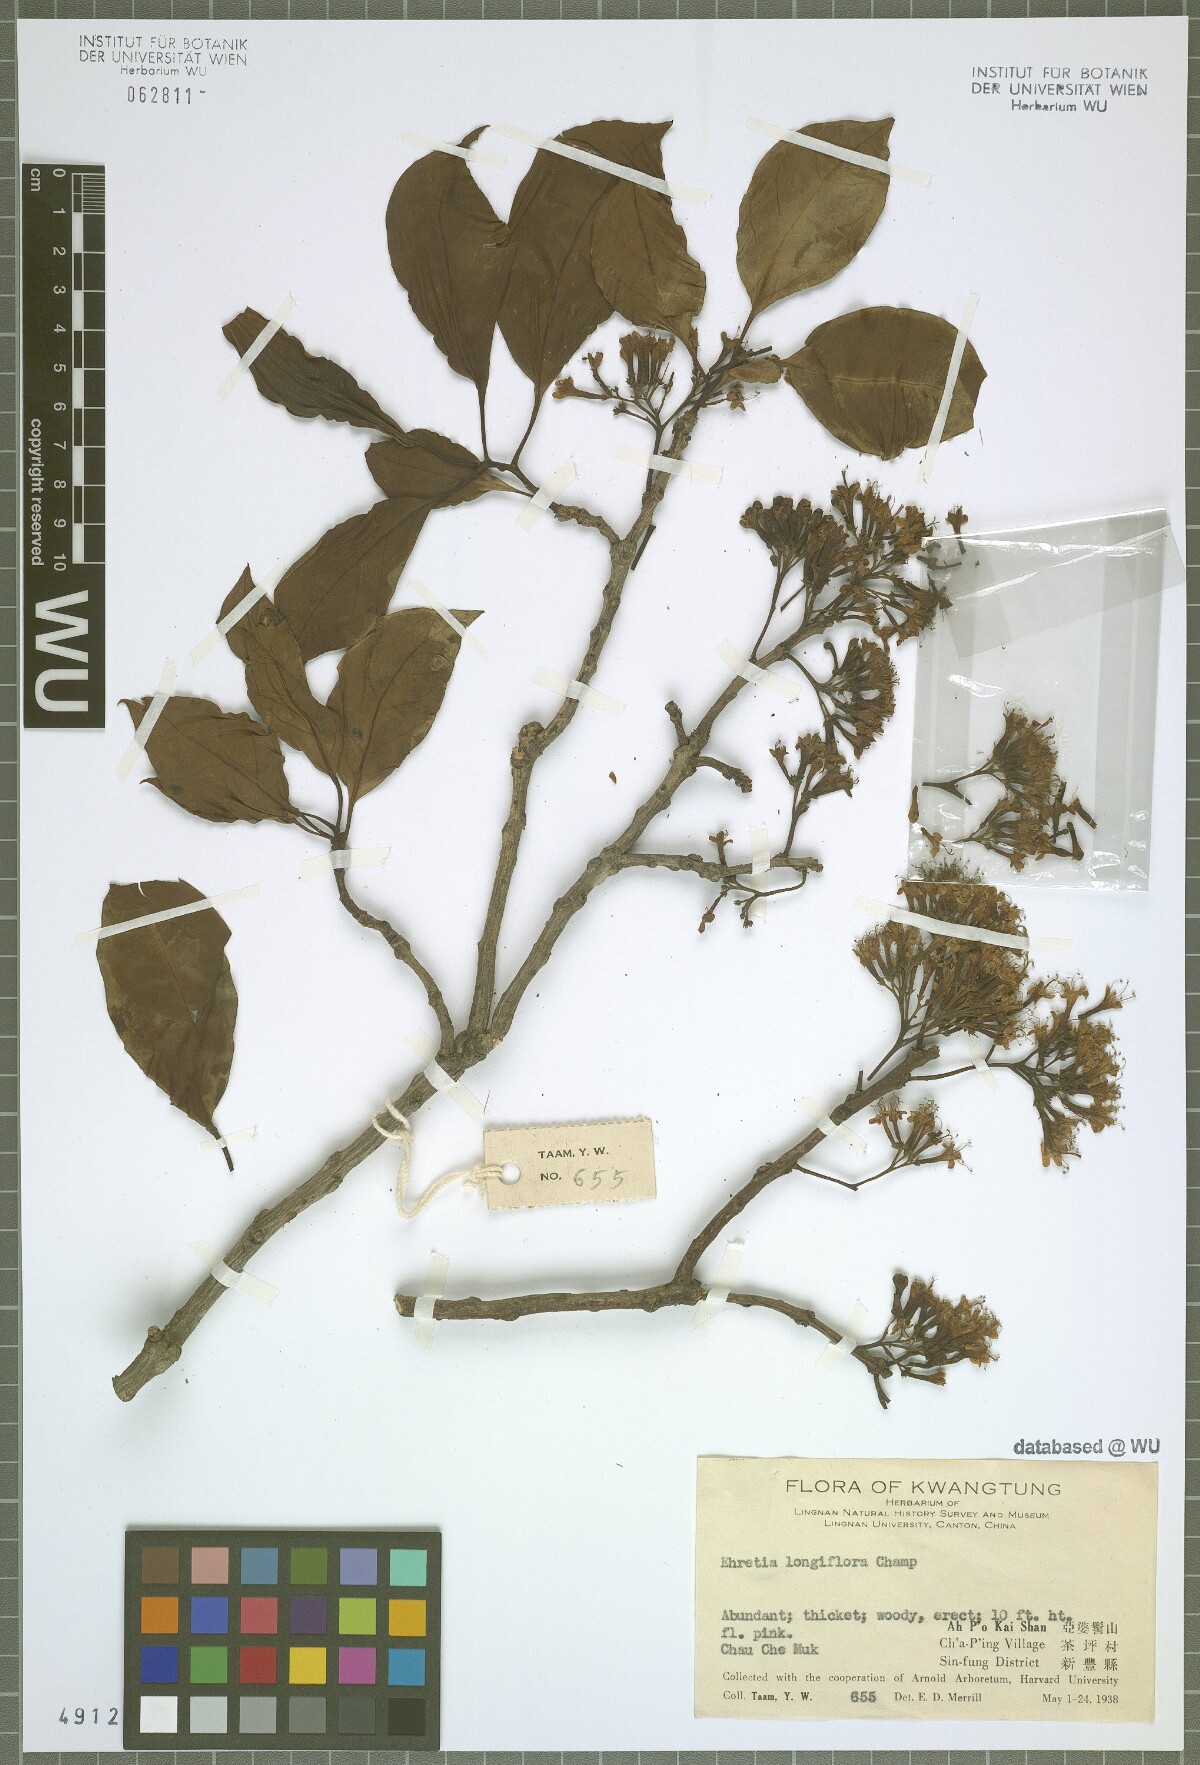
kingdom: Plantae
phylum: Tracheophyta
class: Magnoliopsida
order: Boraginales
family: Ehretiaceae
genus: Ehretia
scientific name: Ehretia longiflora
